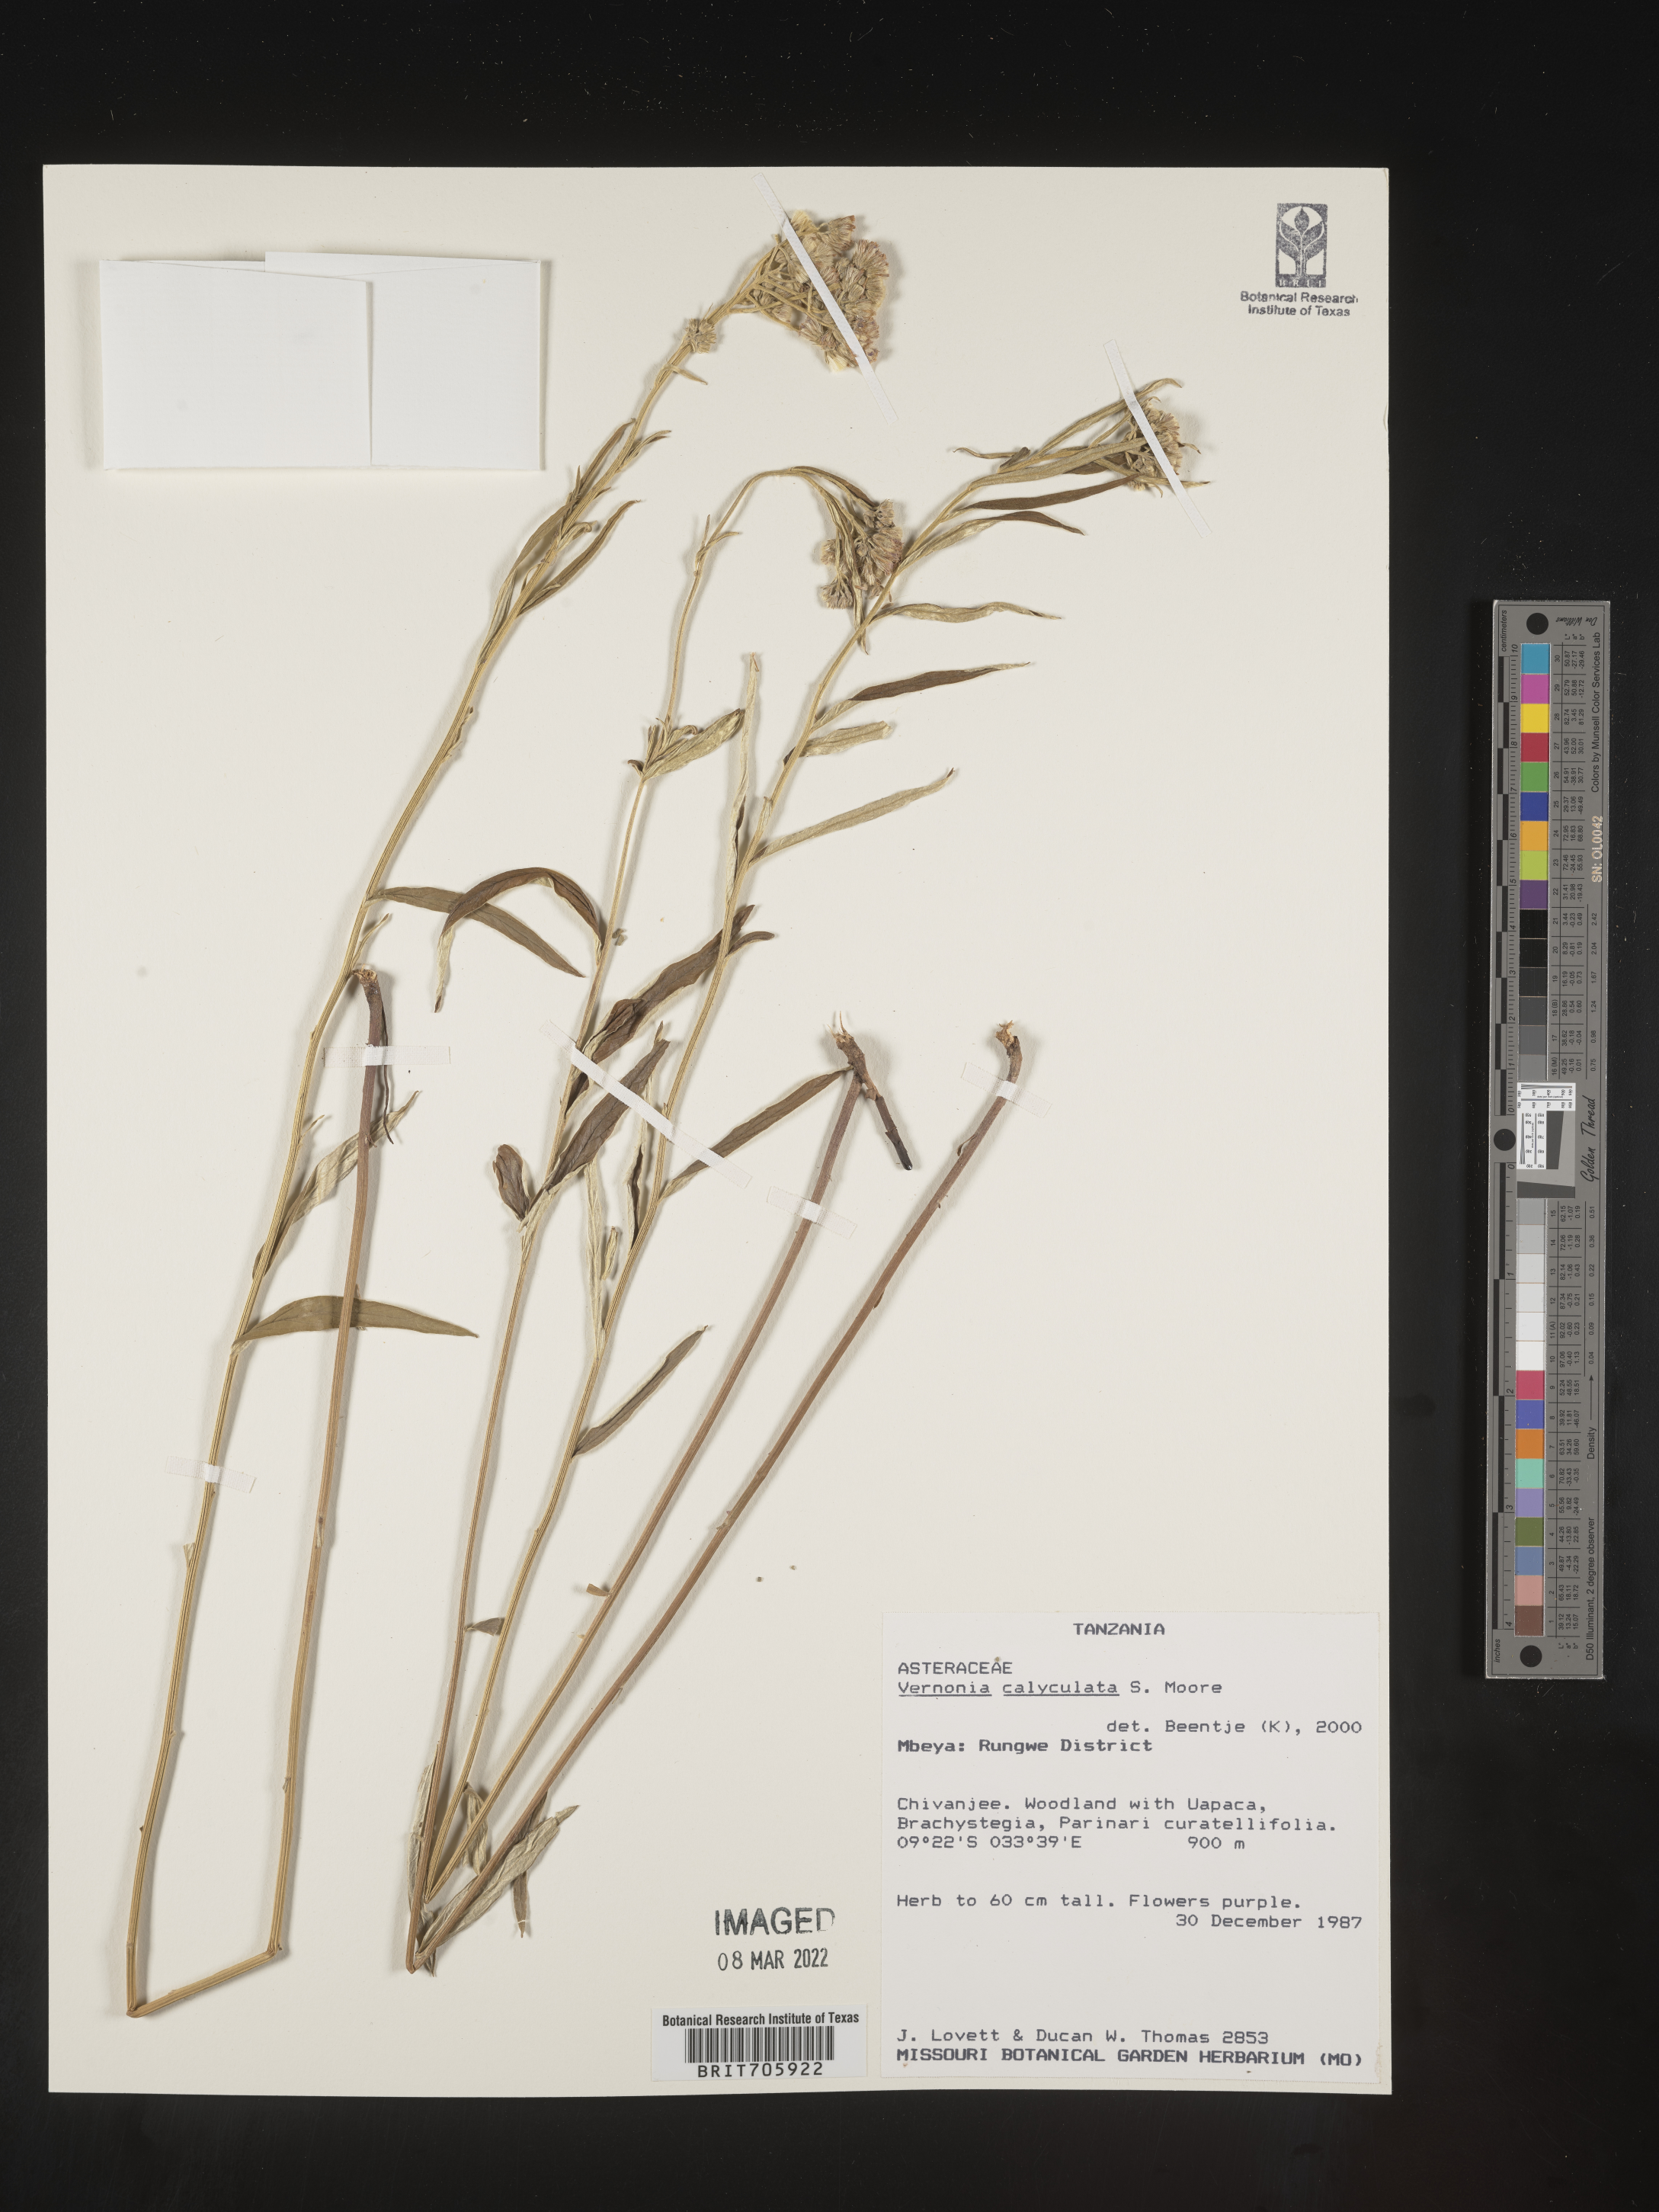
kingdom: Plantae
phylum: Tracheophyta
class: Magnoliopsida
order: Asterales
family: Asteraceae
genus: Vernonia
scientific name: Vernonia
